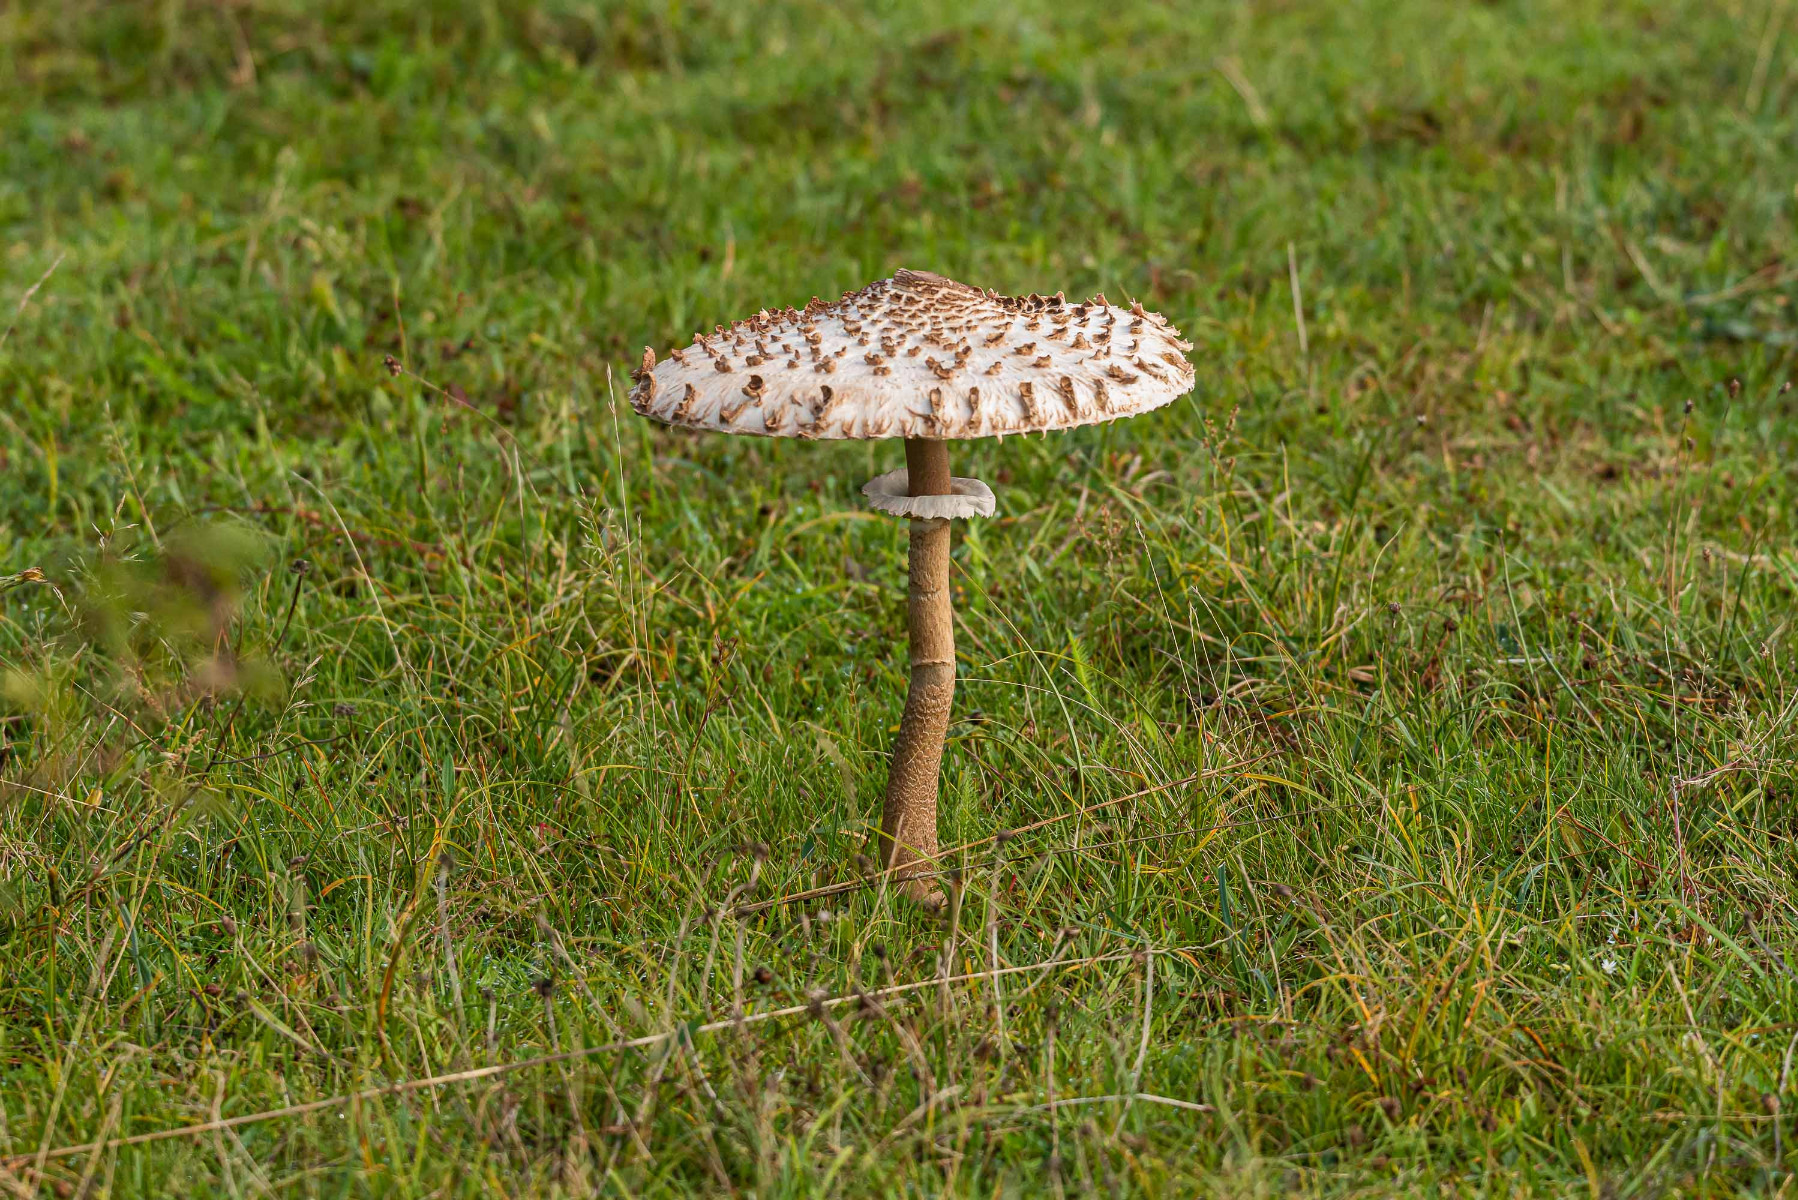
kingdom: Fungi
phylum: Basidiomycota
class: Agaricomycetes
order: Agaricales
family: Agaricaceae
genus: Macrolepiota
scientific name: Macrolepiota procera
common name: stor kæmpeparasolhat
